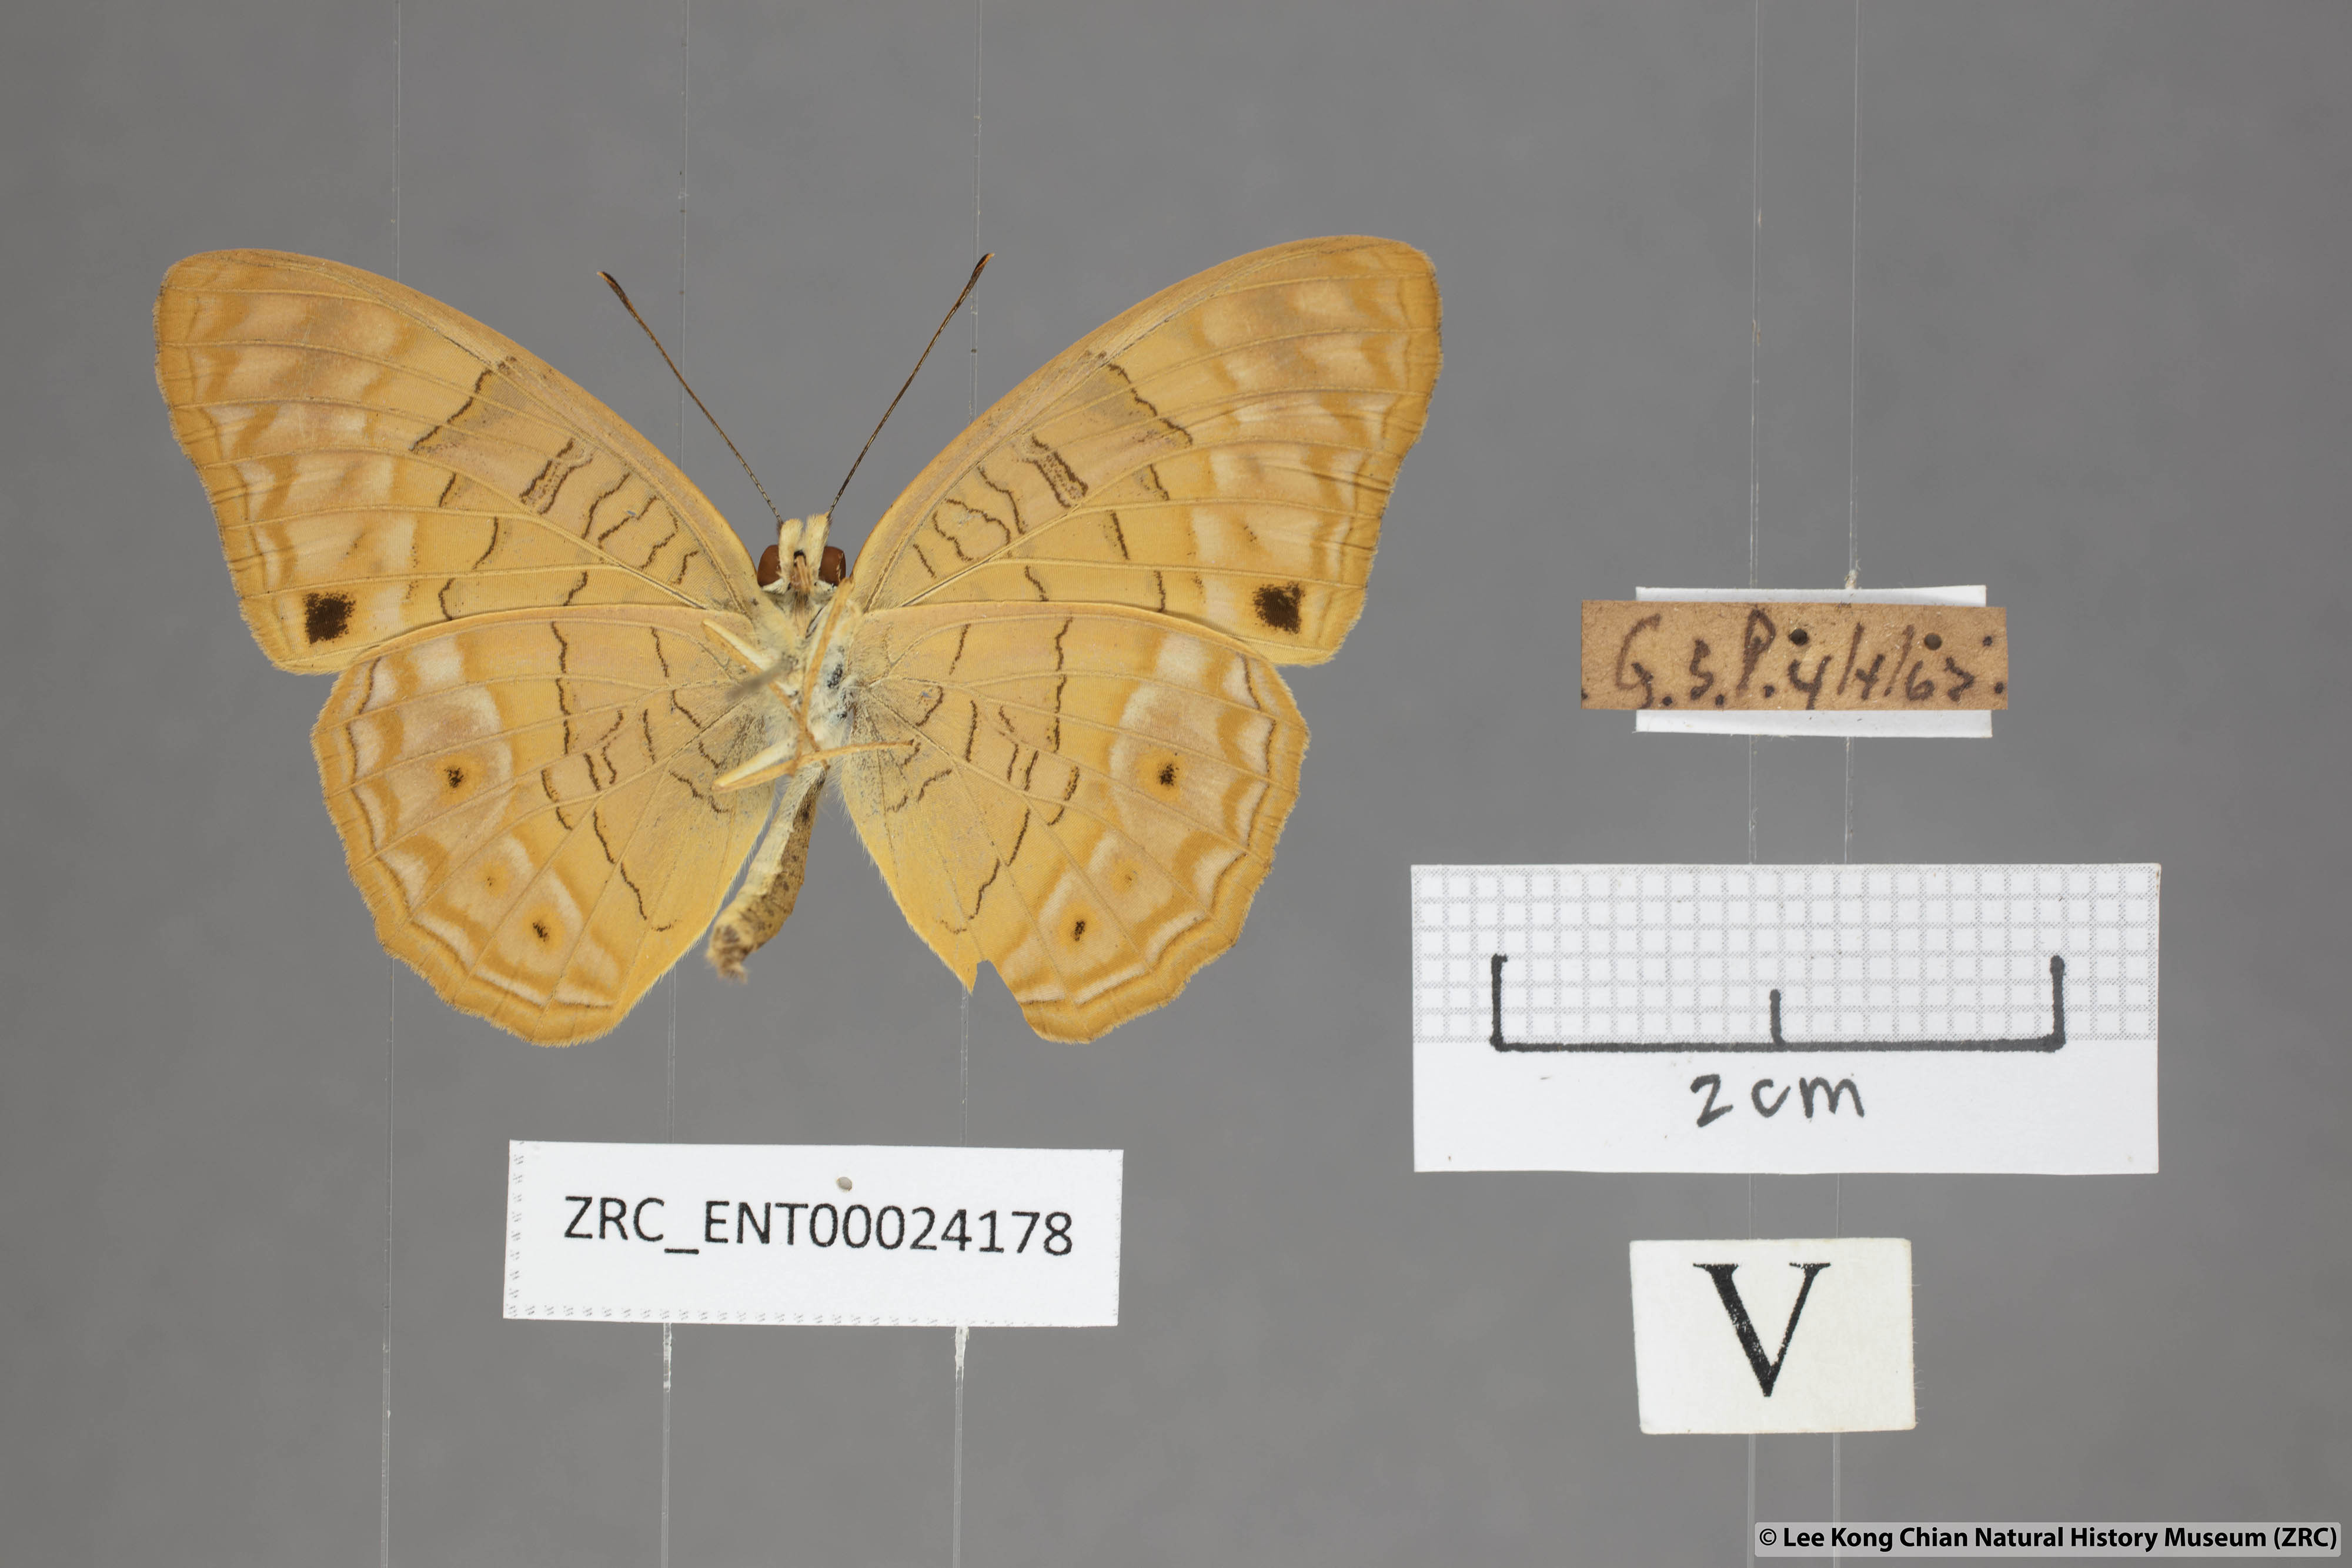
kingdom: Animalia
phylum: Arthropoda
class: Insecta
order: Lepidoptera
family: Nymphalidae
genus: Phalanta
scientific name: Phalanta alcippe
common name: Small leopard
